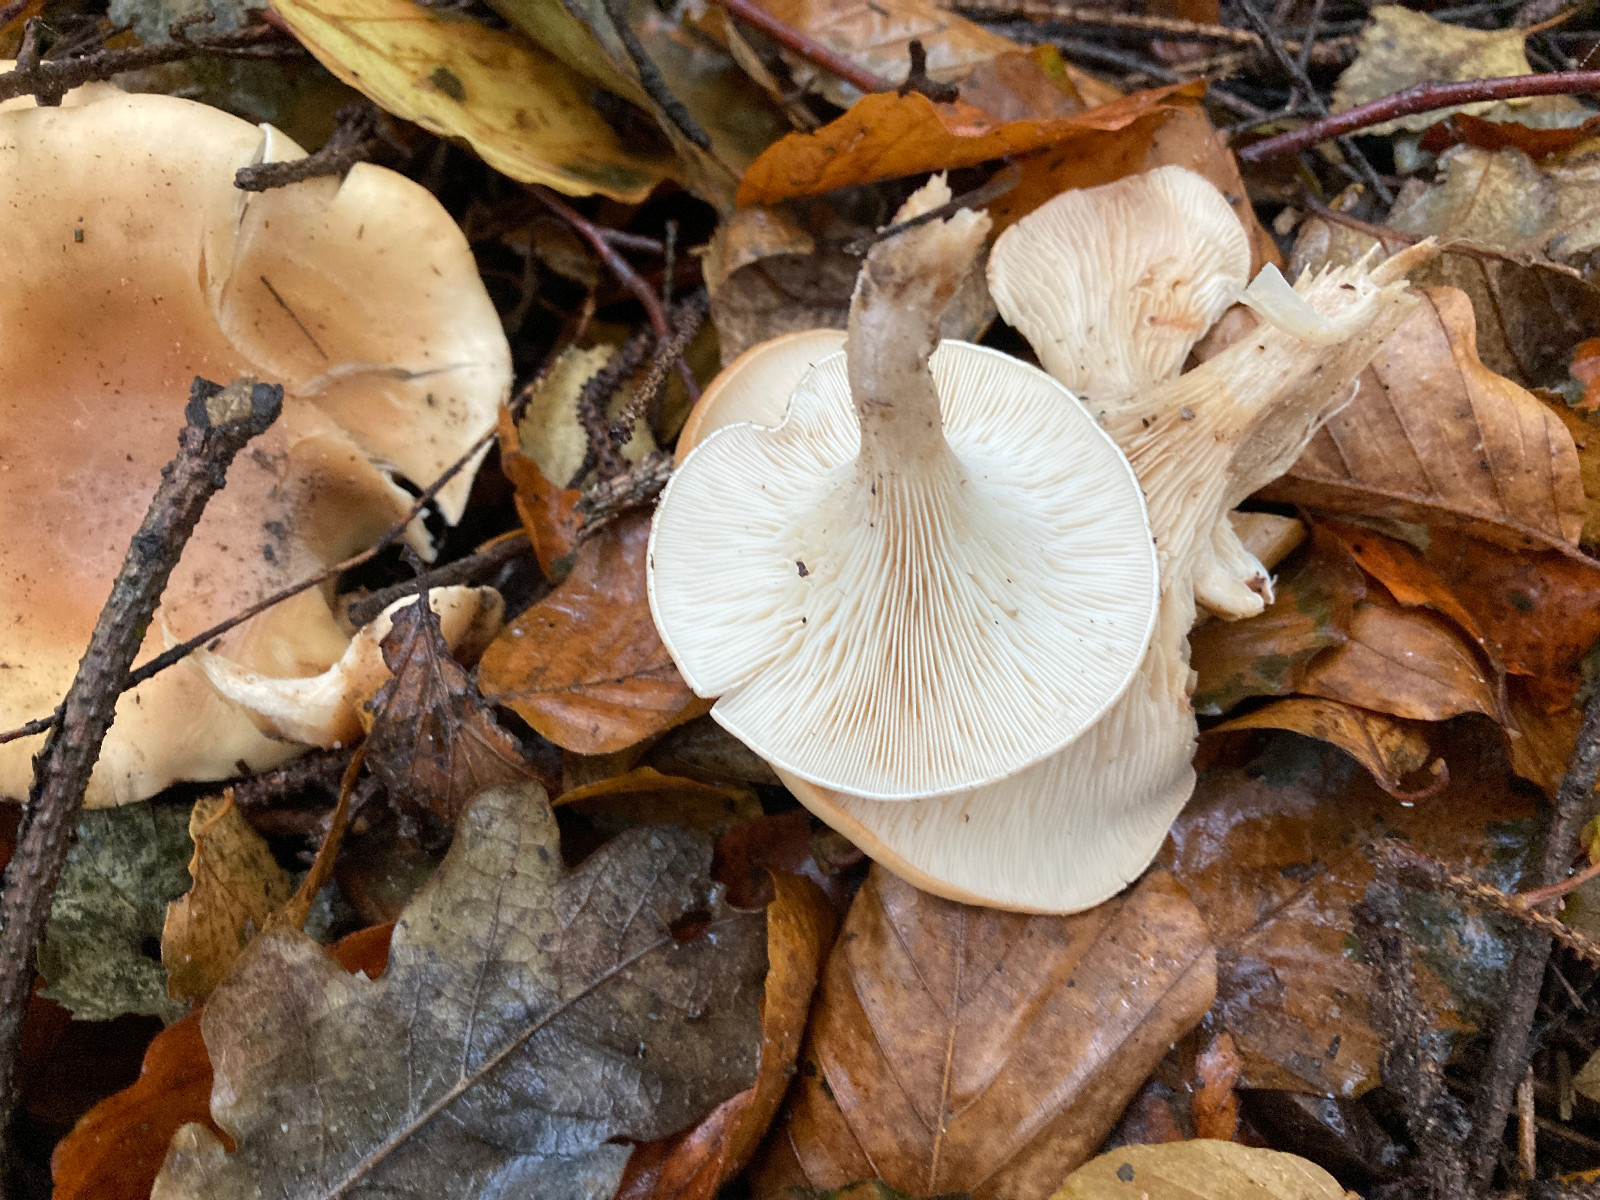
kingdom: Fungi
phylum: Basidiomycota
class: Agaricomycetes
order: Agaricales
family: Tricholomataceae
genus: Paralepista
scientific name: Paralepista flaccida
